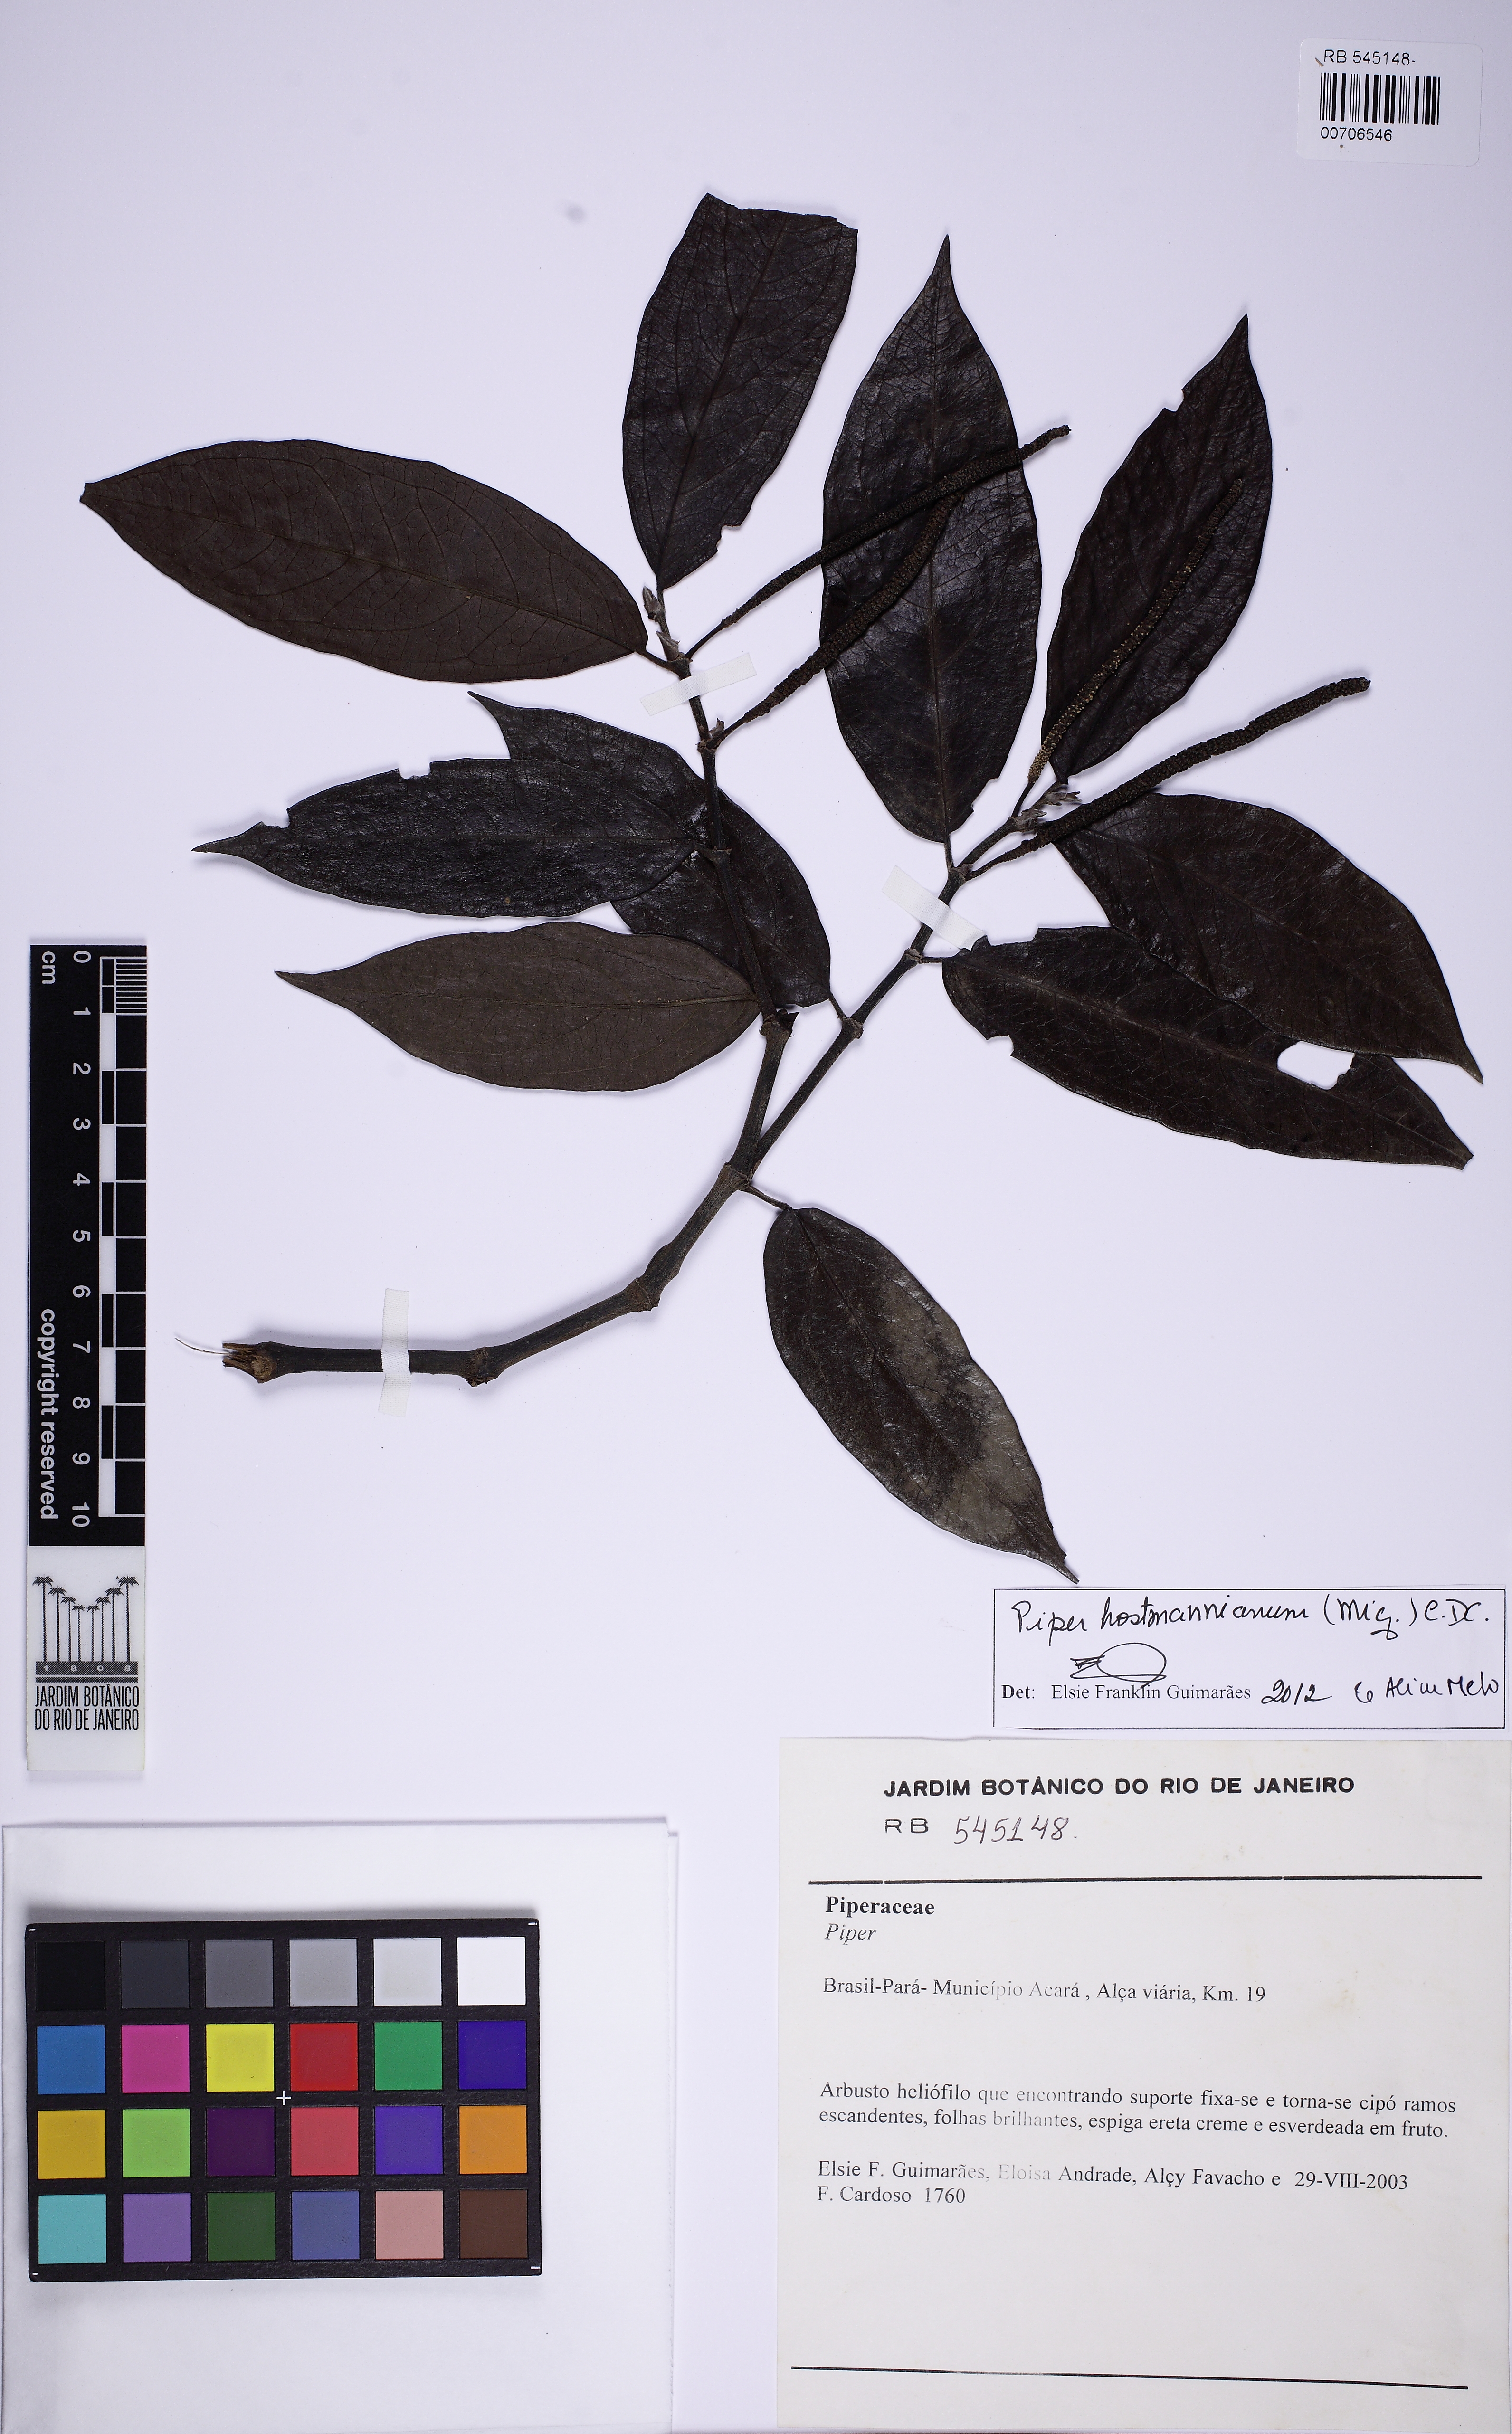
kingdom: Plantae
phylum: Tracheophyta
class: Magnoliopsida
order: Piperales
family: Piperaceae
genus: Piper
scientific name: Piper hostmannianum
